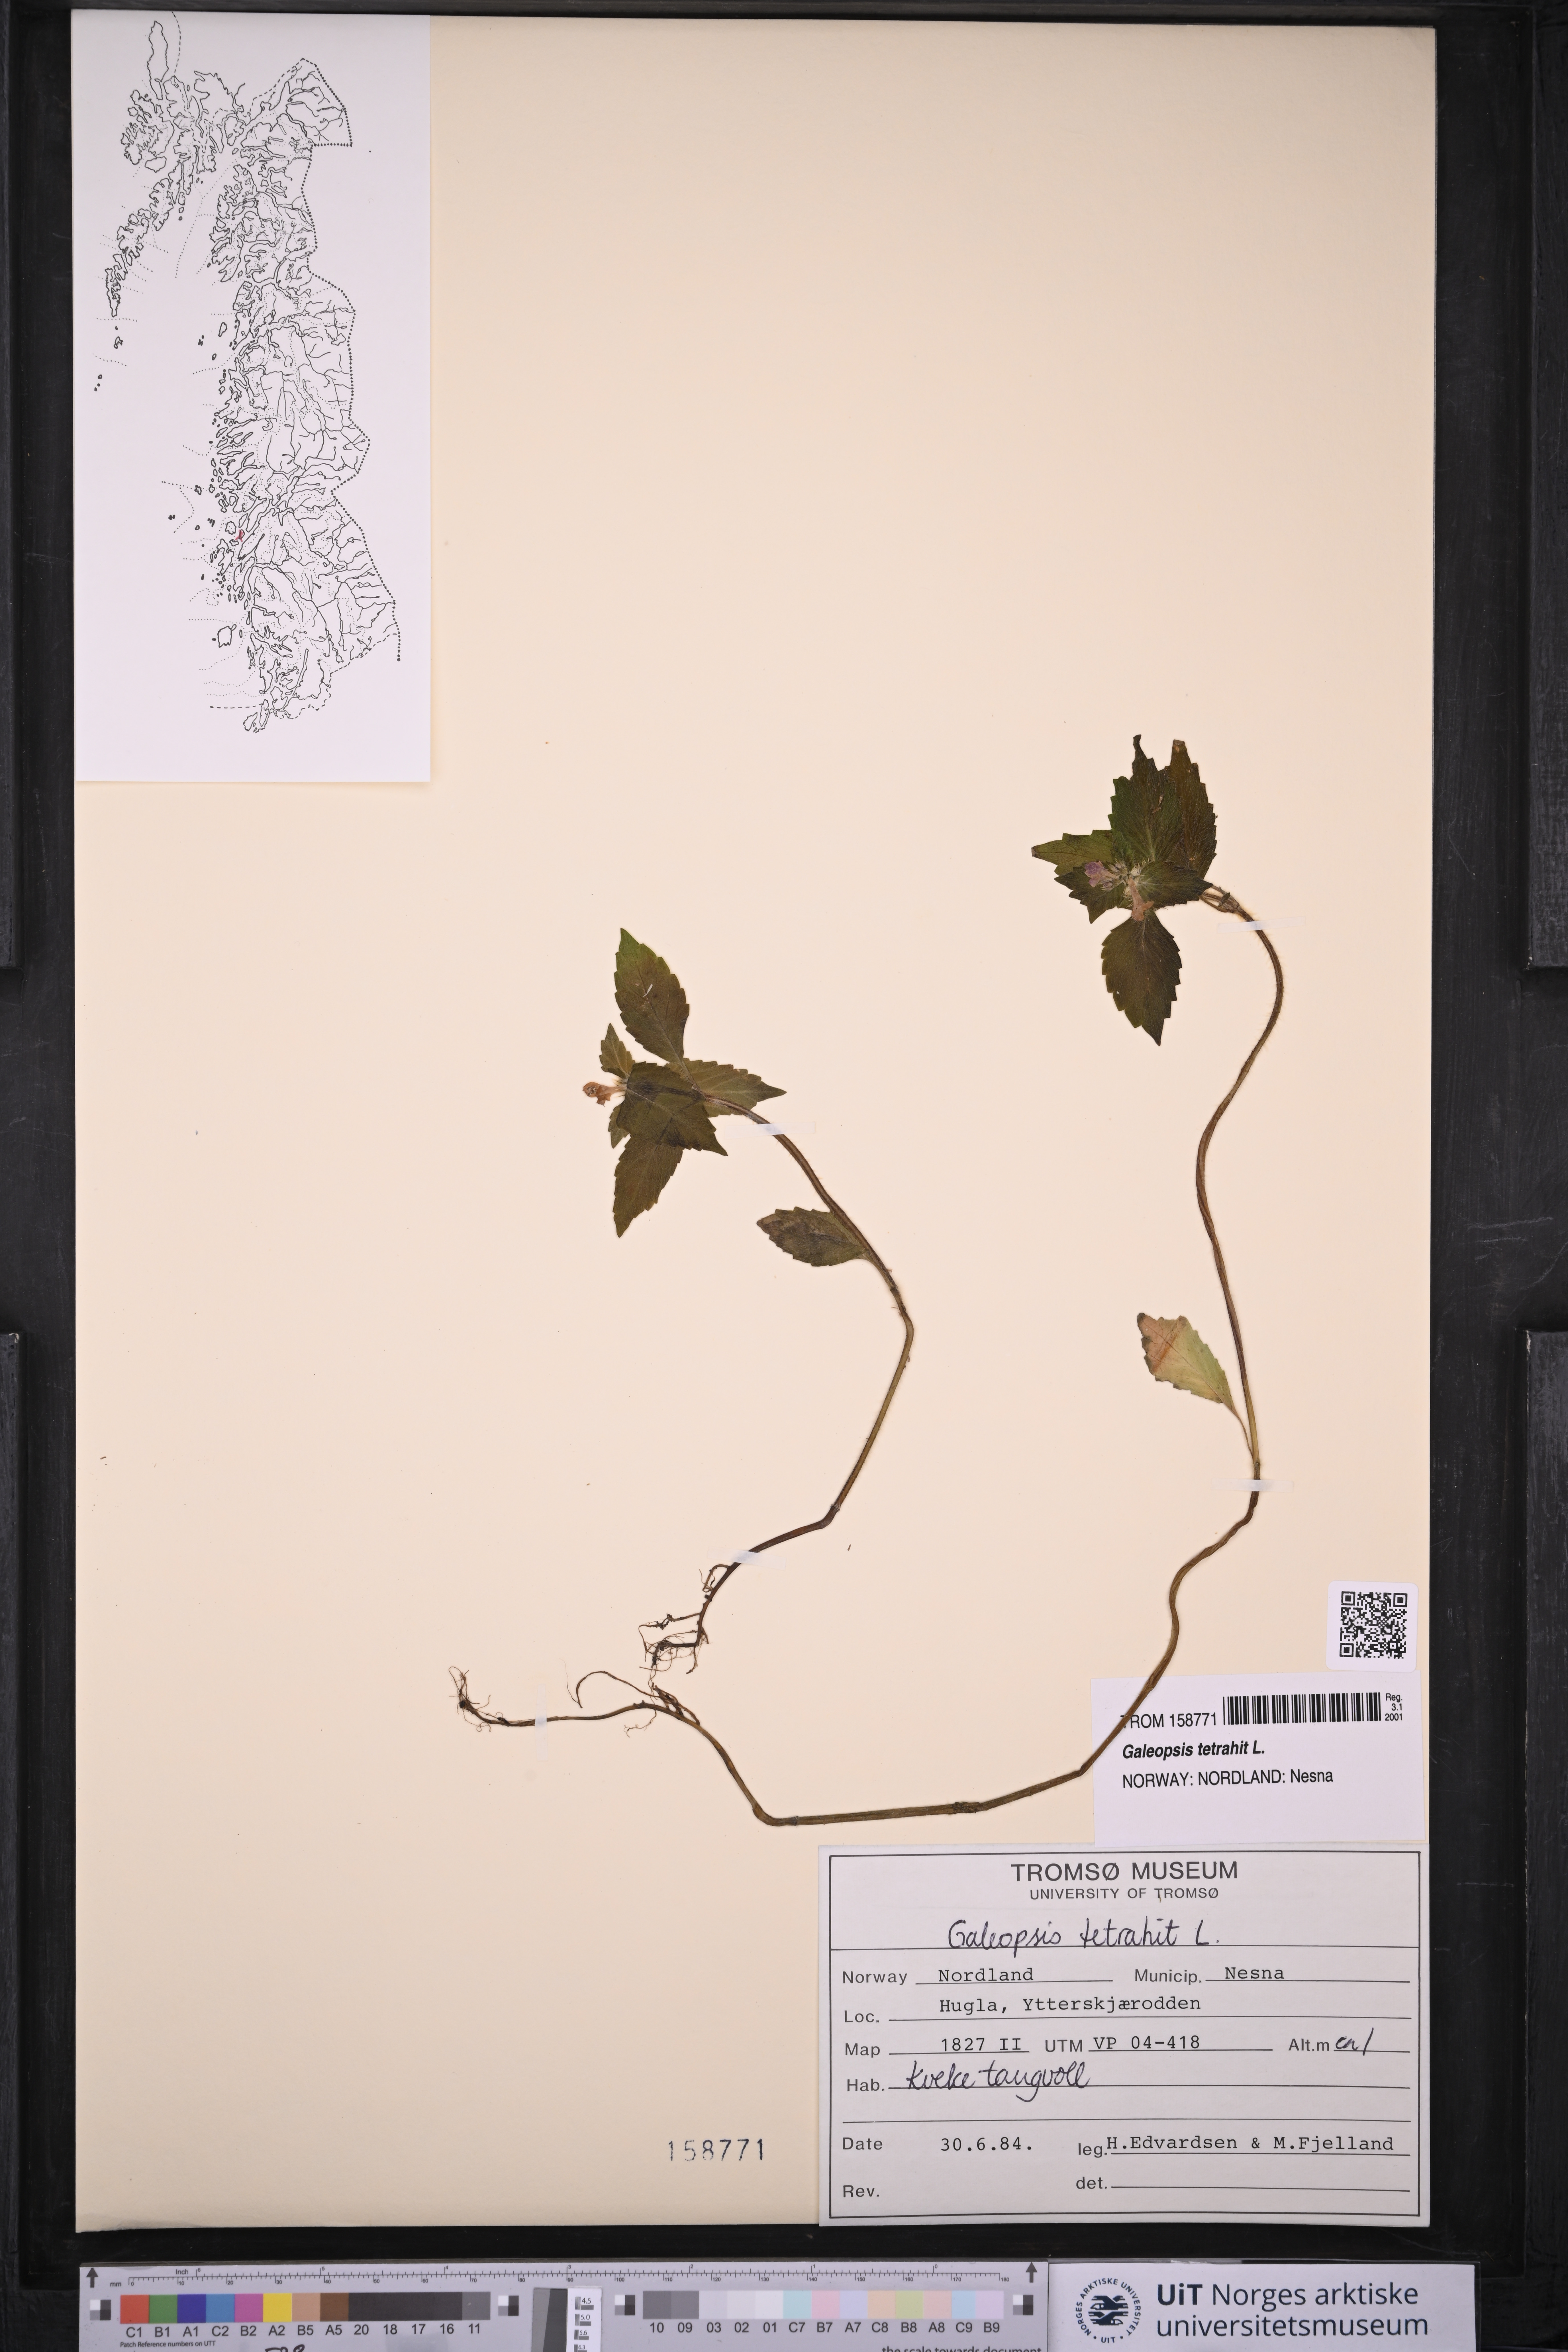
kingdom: Plantae
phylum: Tracheophyta
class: Magnoliopsida
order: Lamiales
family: Lamiaceae
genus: Galeopsis
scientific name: Galeopsis tetrahit
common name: Common hemp-nettle
